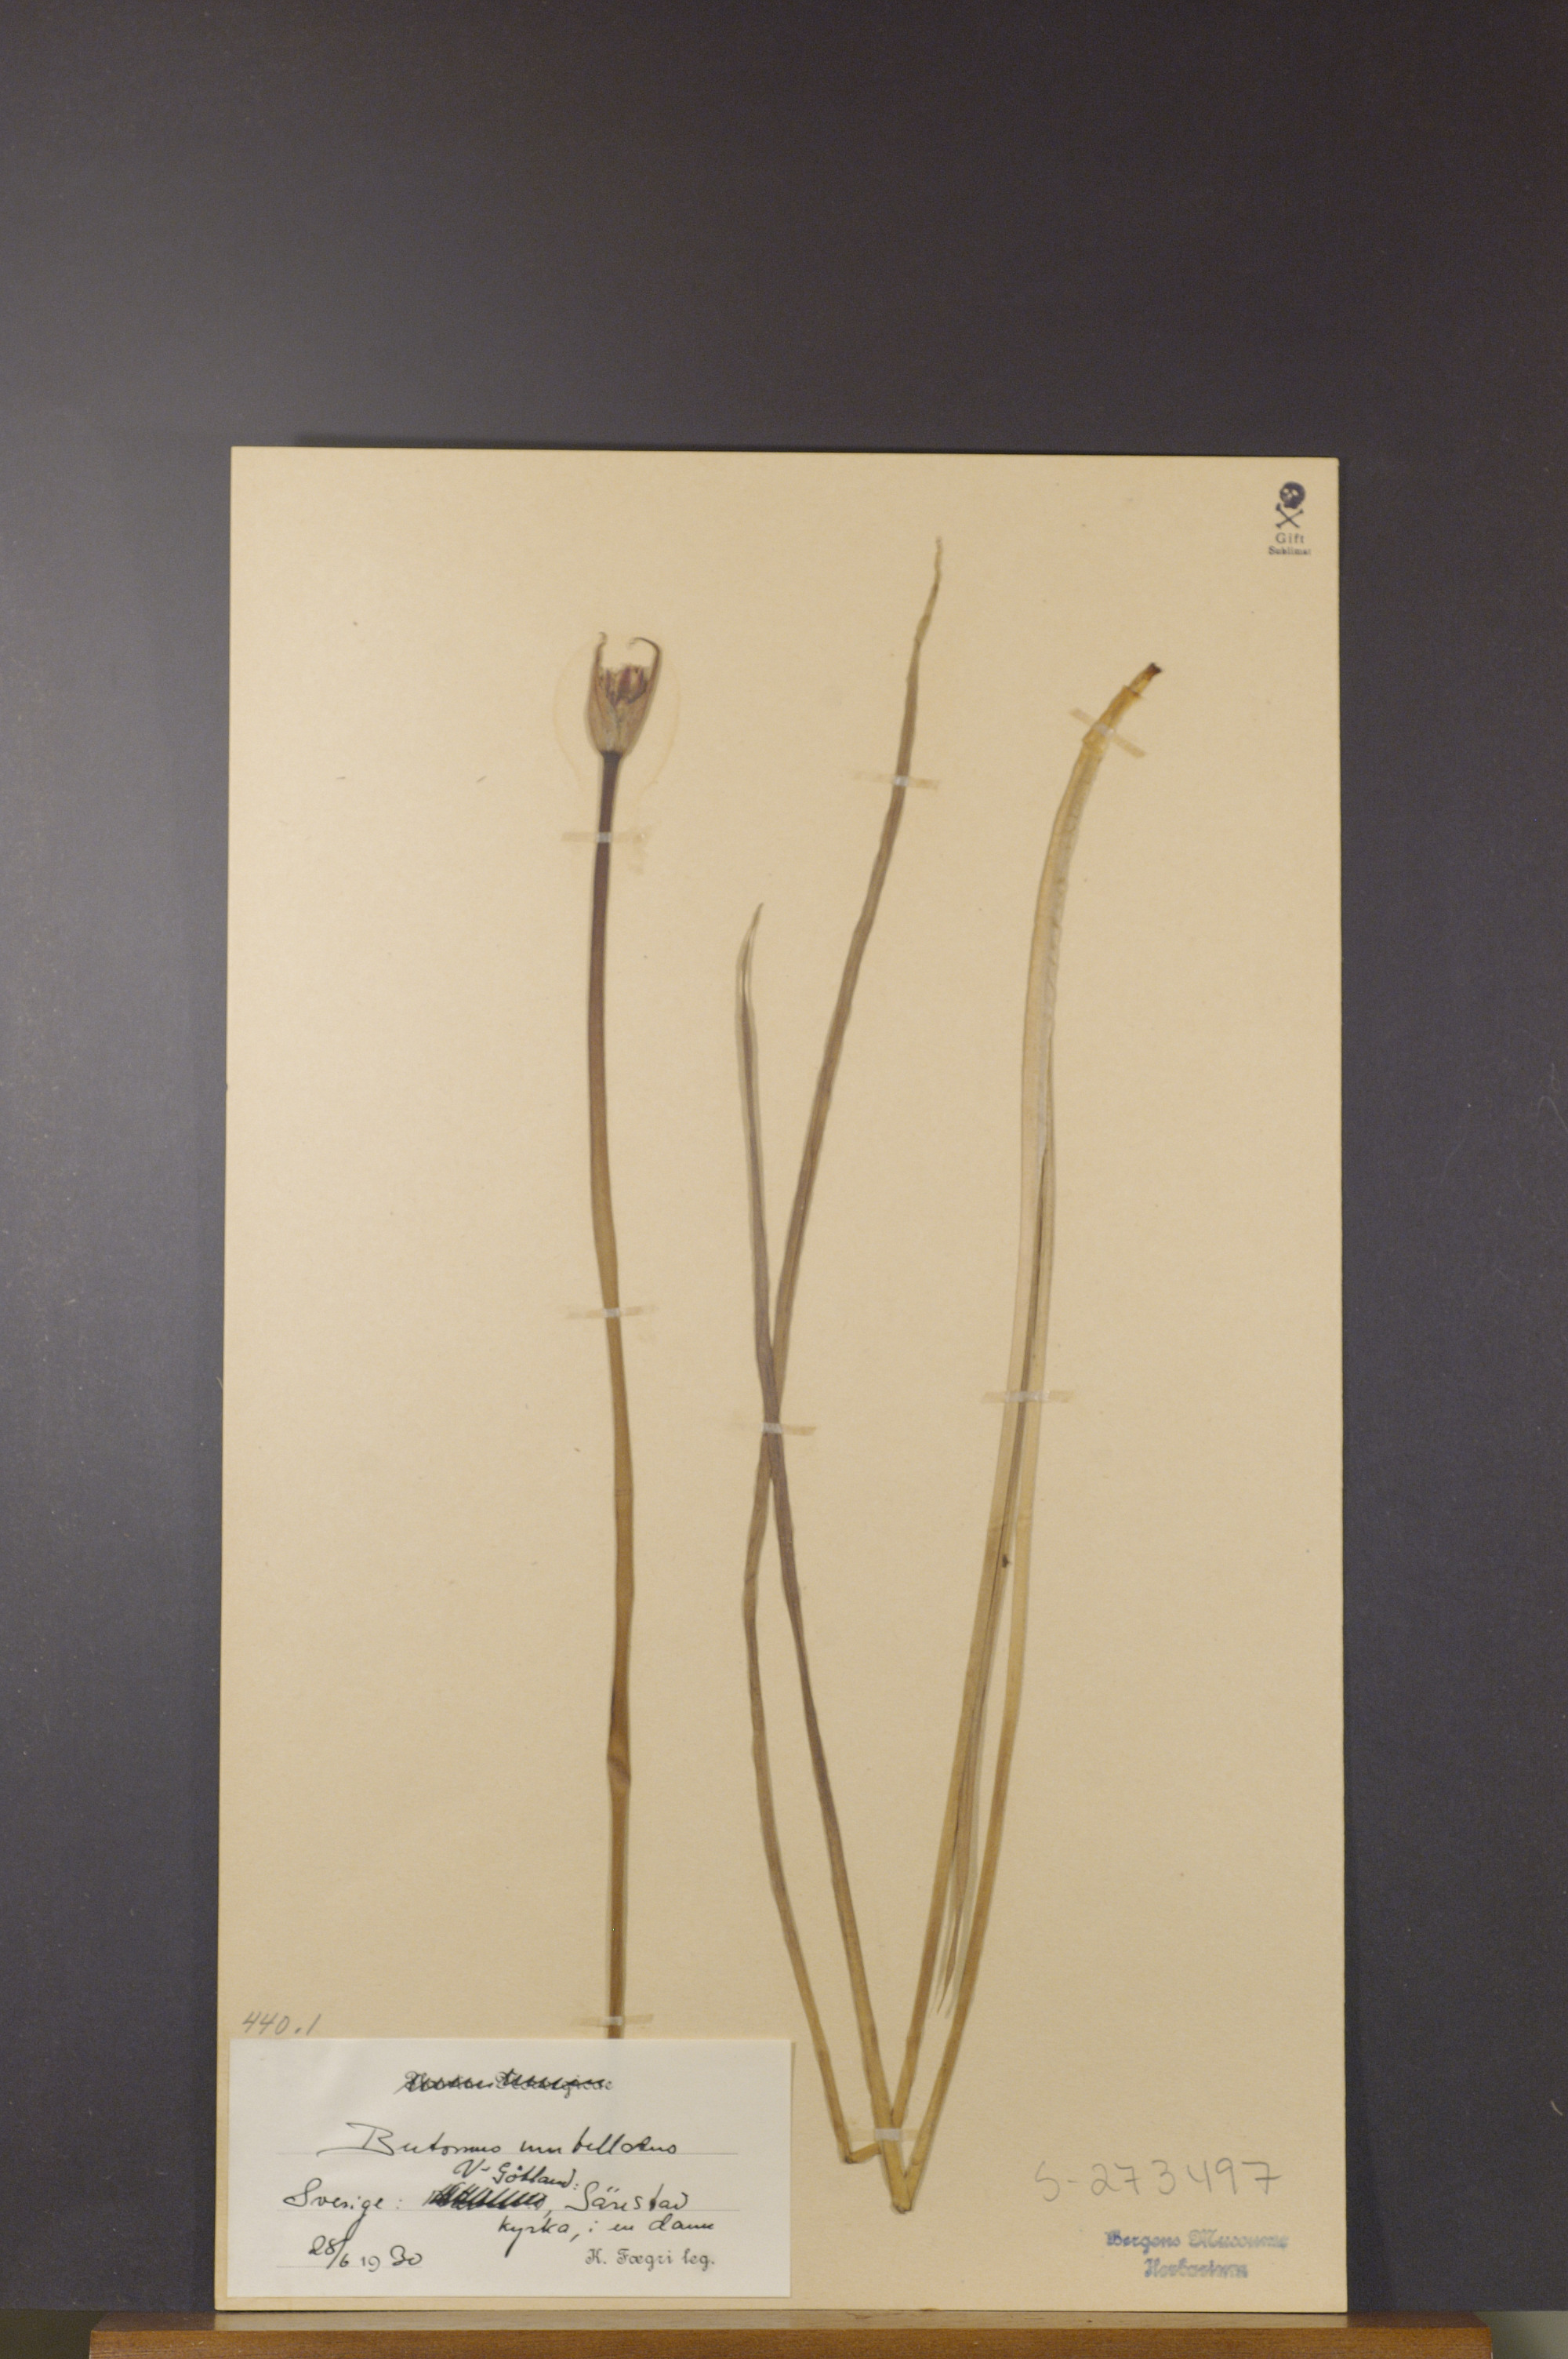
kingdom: Plantae
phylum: Tracheophyta
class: Liliopsida
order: Alismatales
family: Butomaceae
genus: Butomus
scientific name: Butomus umbellatus
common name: Flowering-rush
